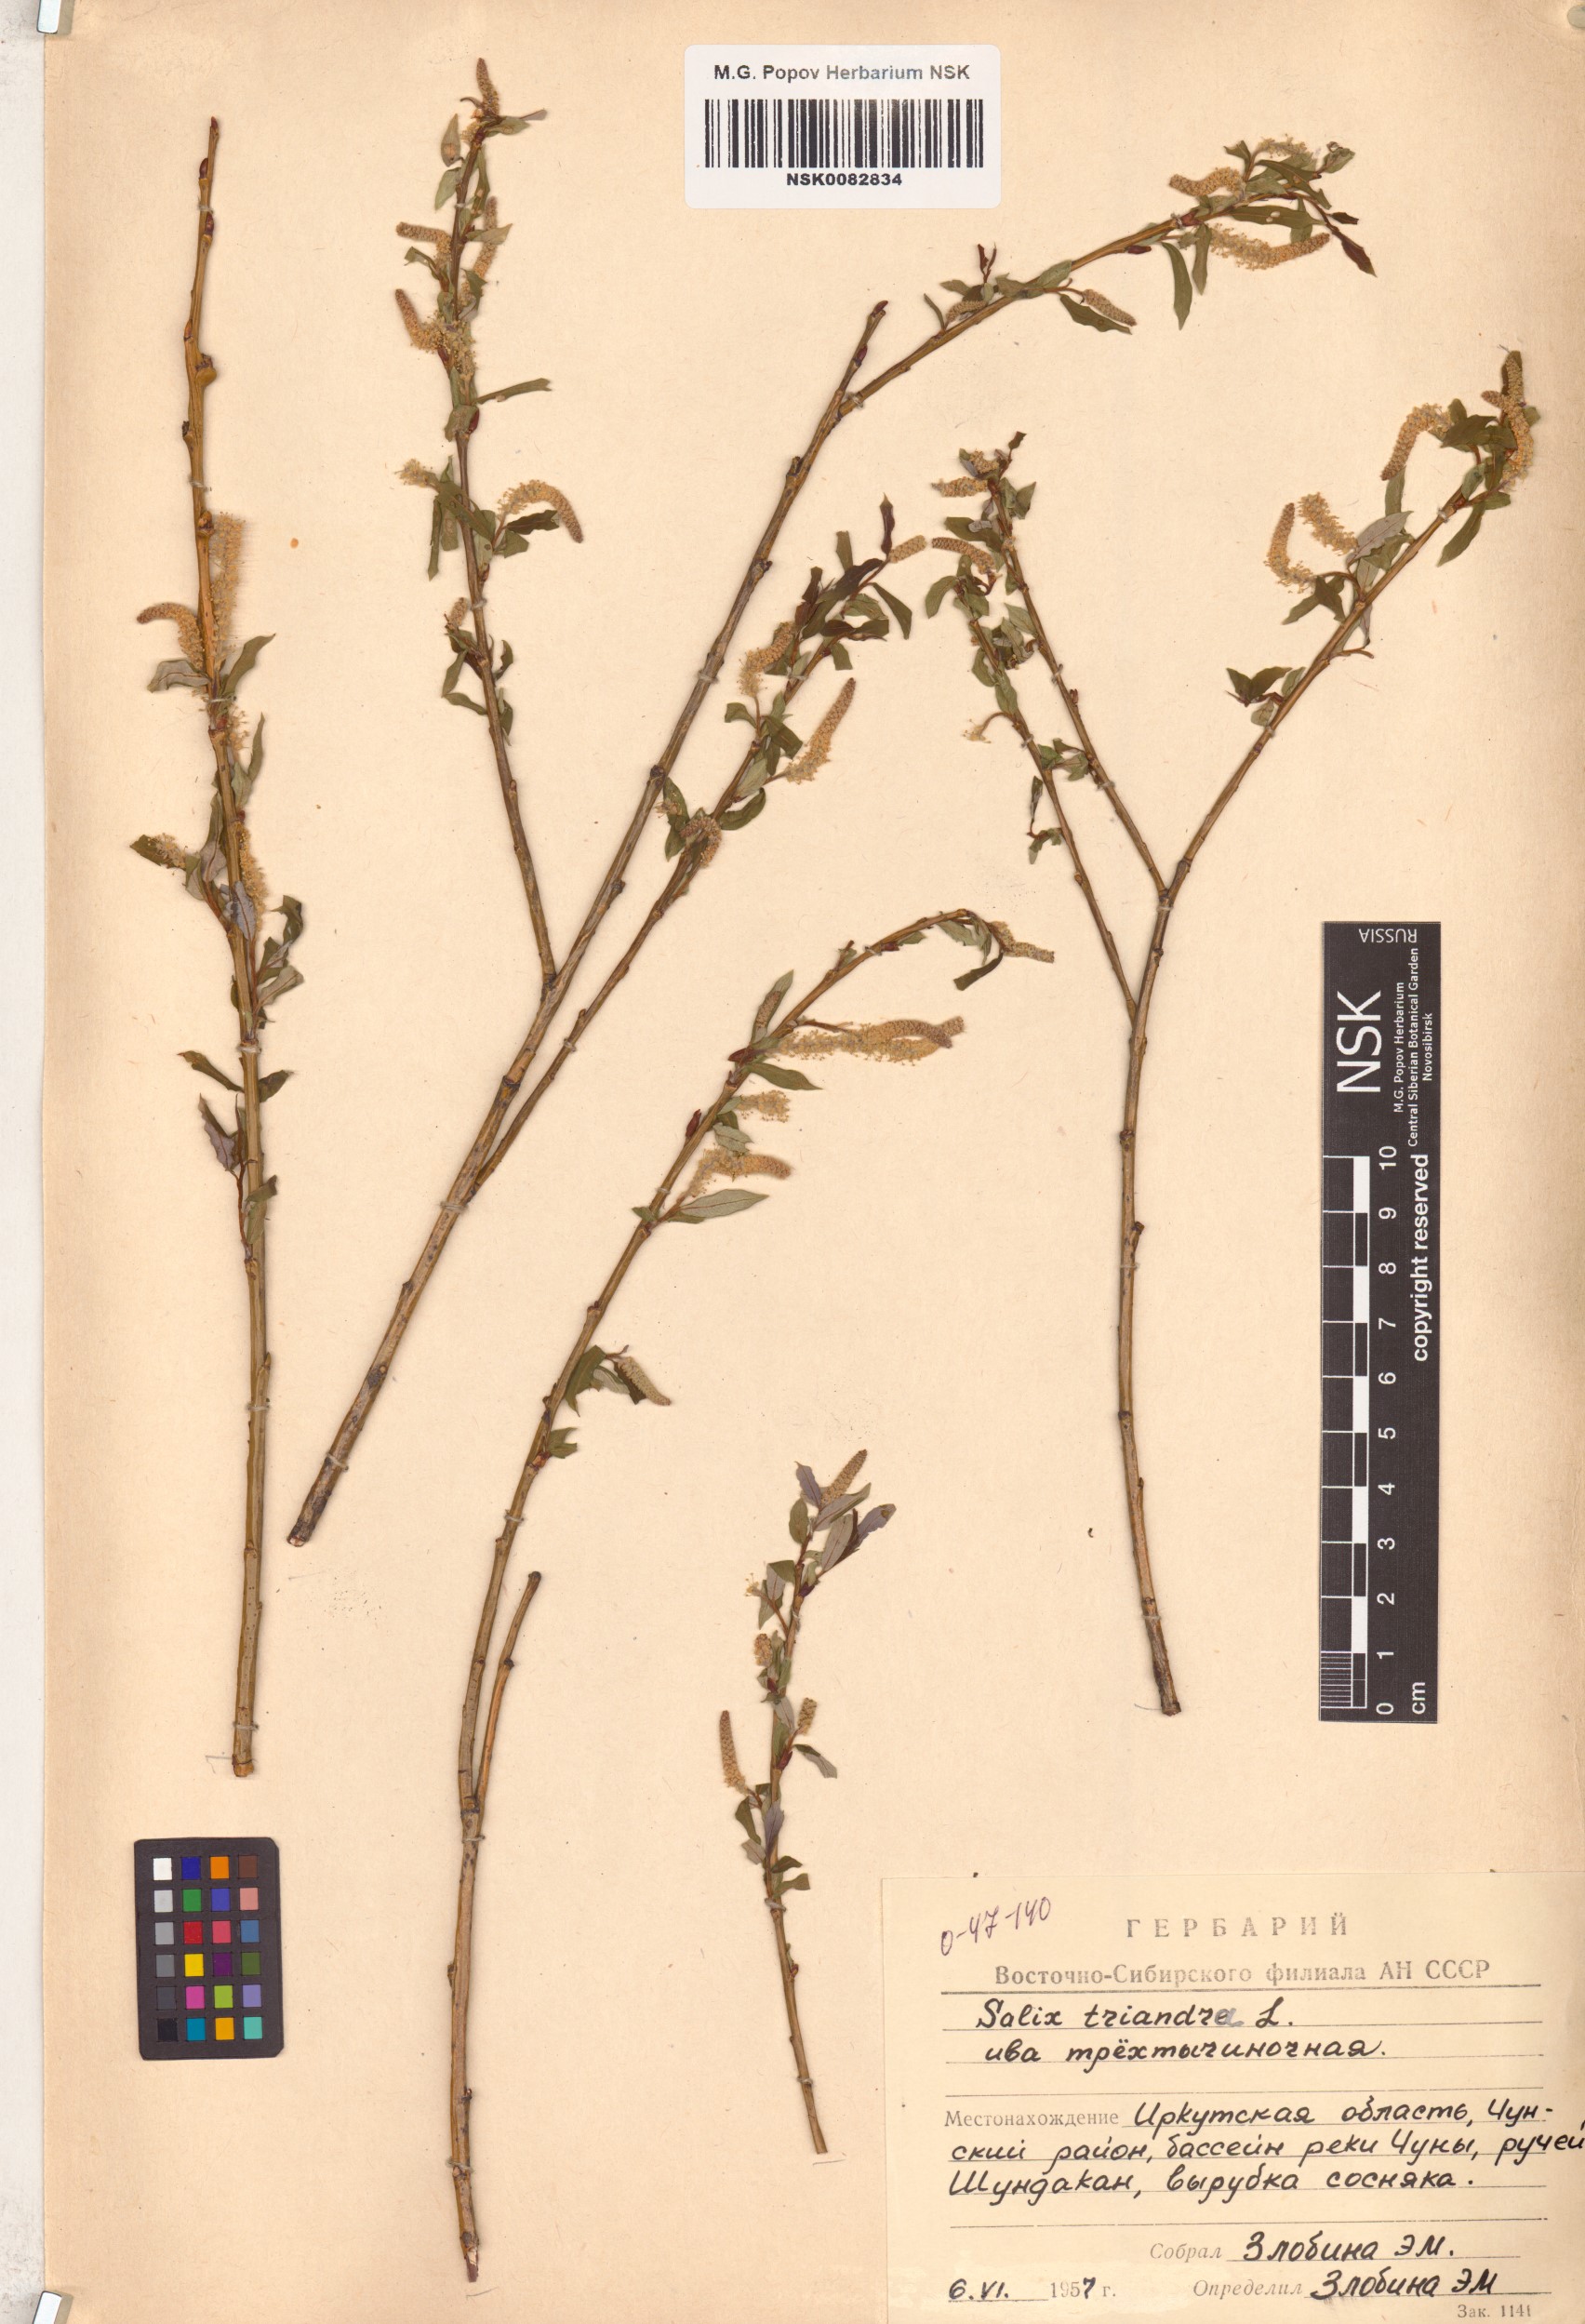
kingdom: Plantae
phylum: Tracheophyta
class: Magnoliopsida
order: Malpighiales
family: Salicaceae
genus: Salix
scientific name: Salix triandra
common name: Almond willow
